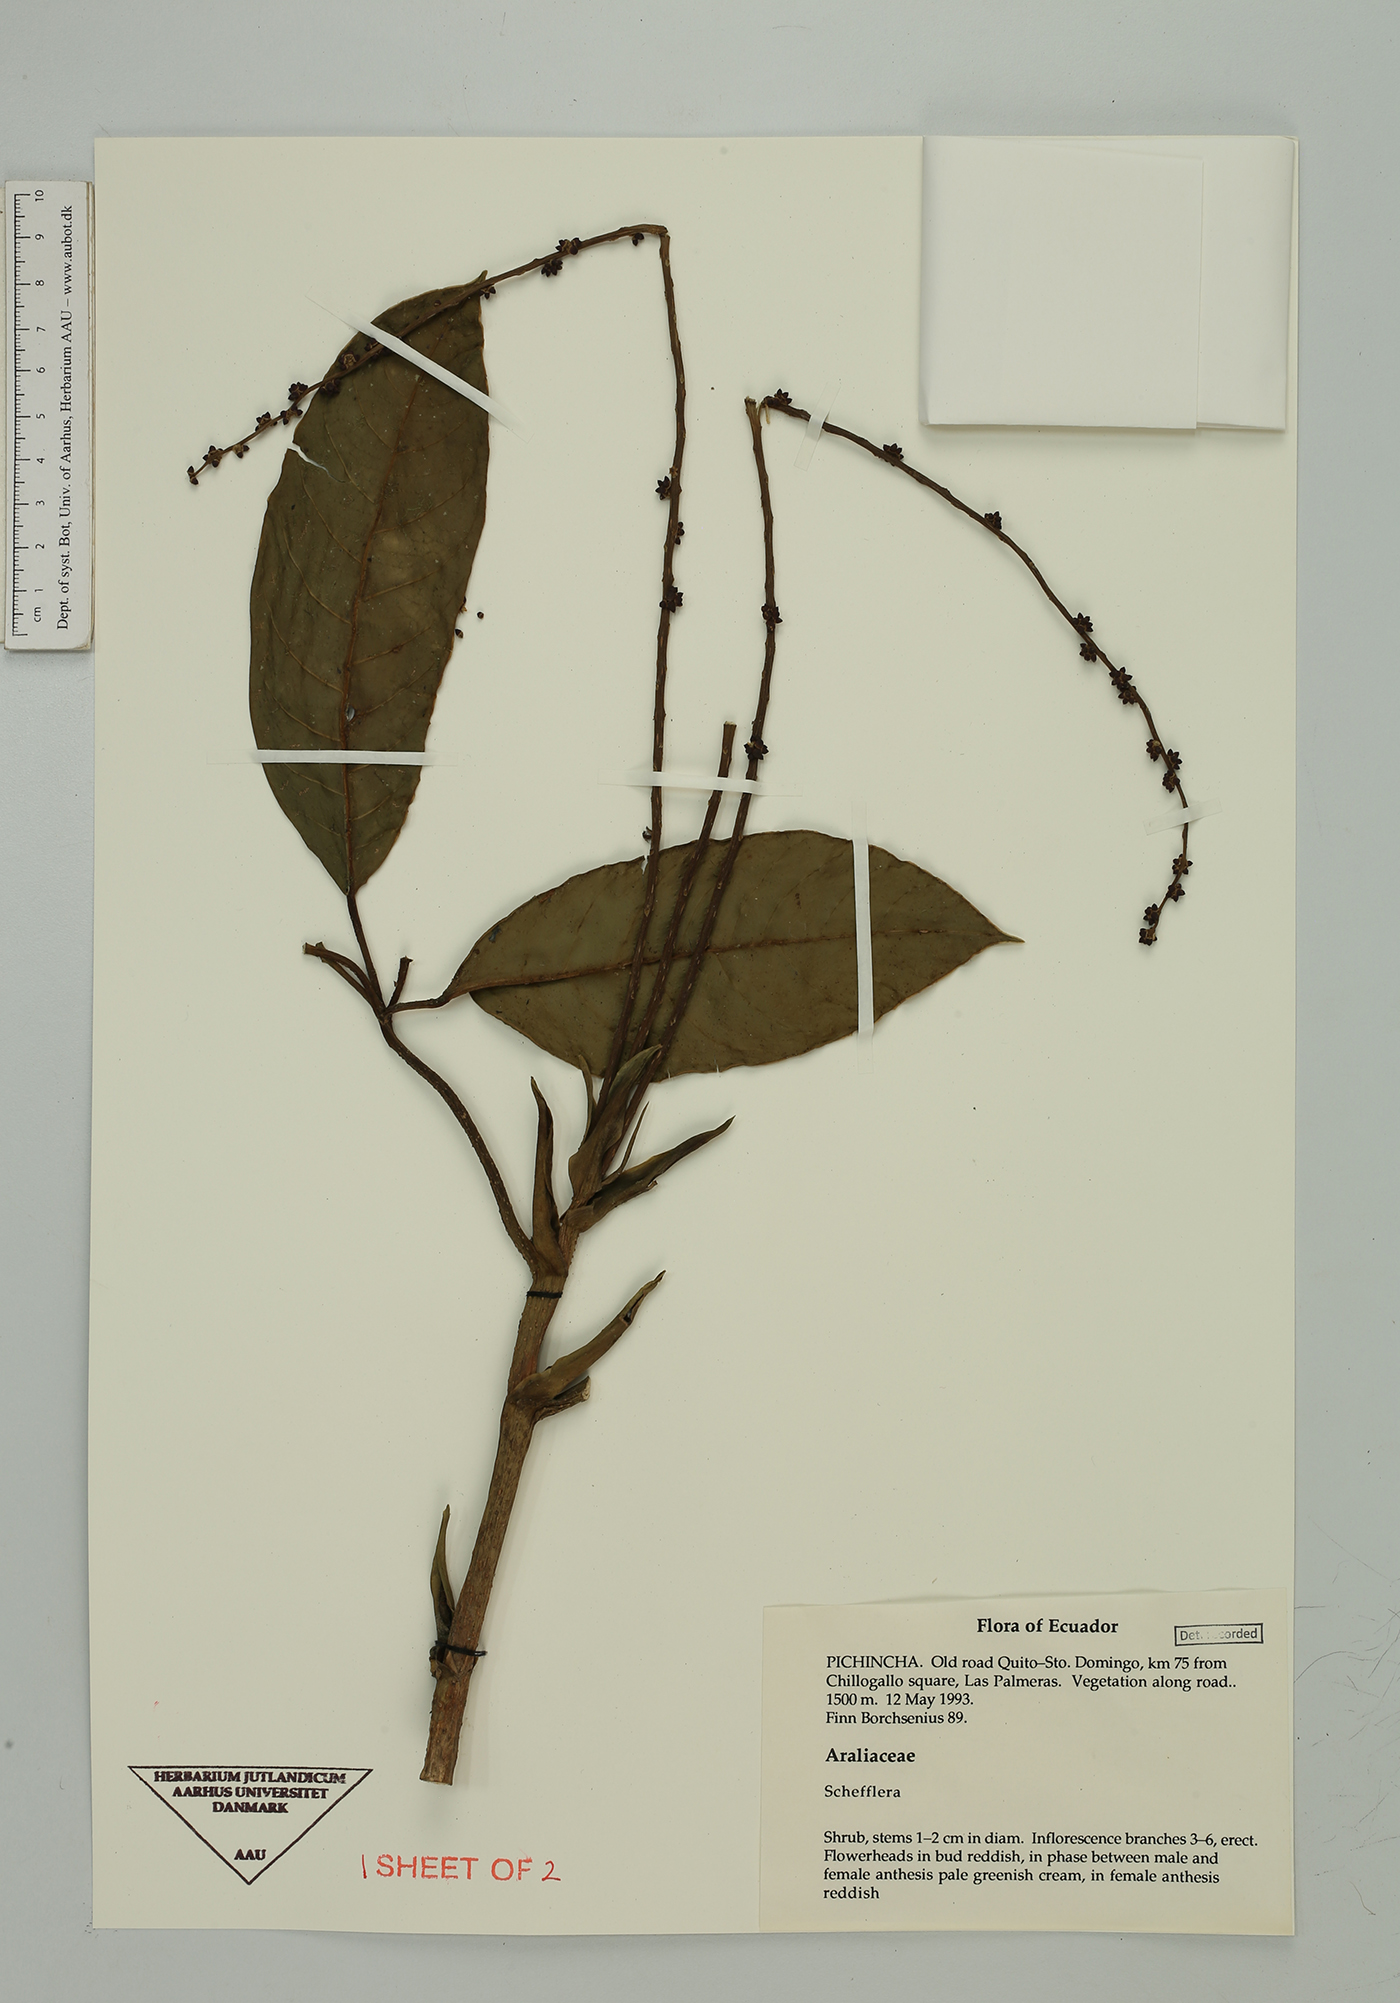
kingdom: Plantae
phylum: Tracheophyta
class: Magnoliopsida
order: Apiales
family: Araliaceae
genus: Sciodaphyllum
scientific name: Sciodaphyllum
